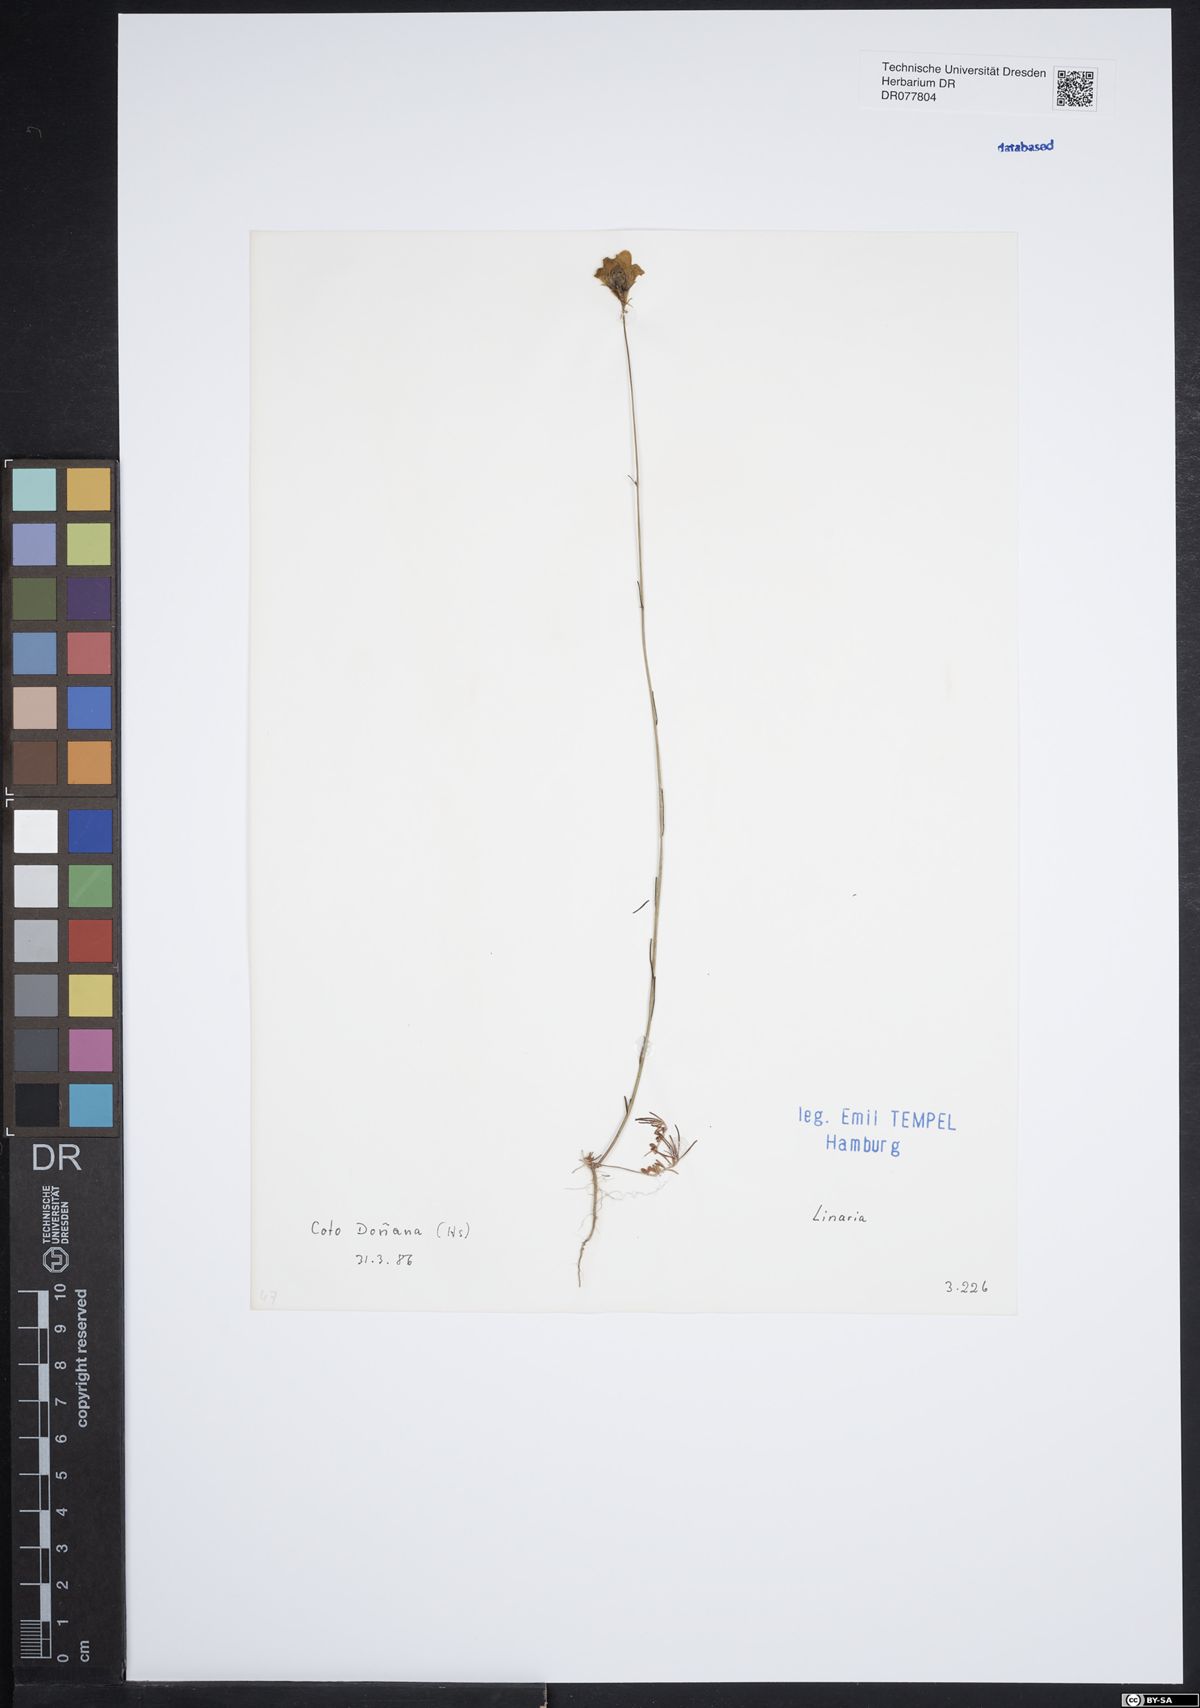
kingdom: Plantae
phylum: Tracheophyta
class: Magnoliopsida
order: Lamiales
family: Plantaginaceae
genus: Linaria
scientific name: Linaria
